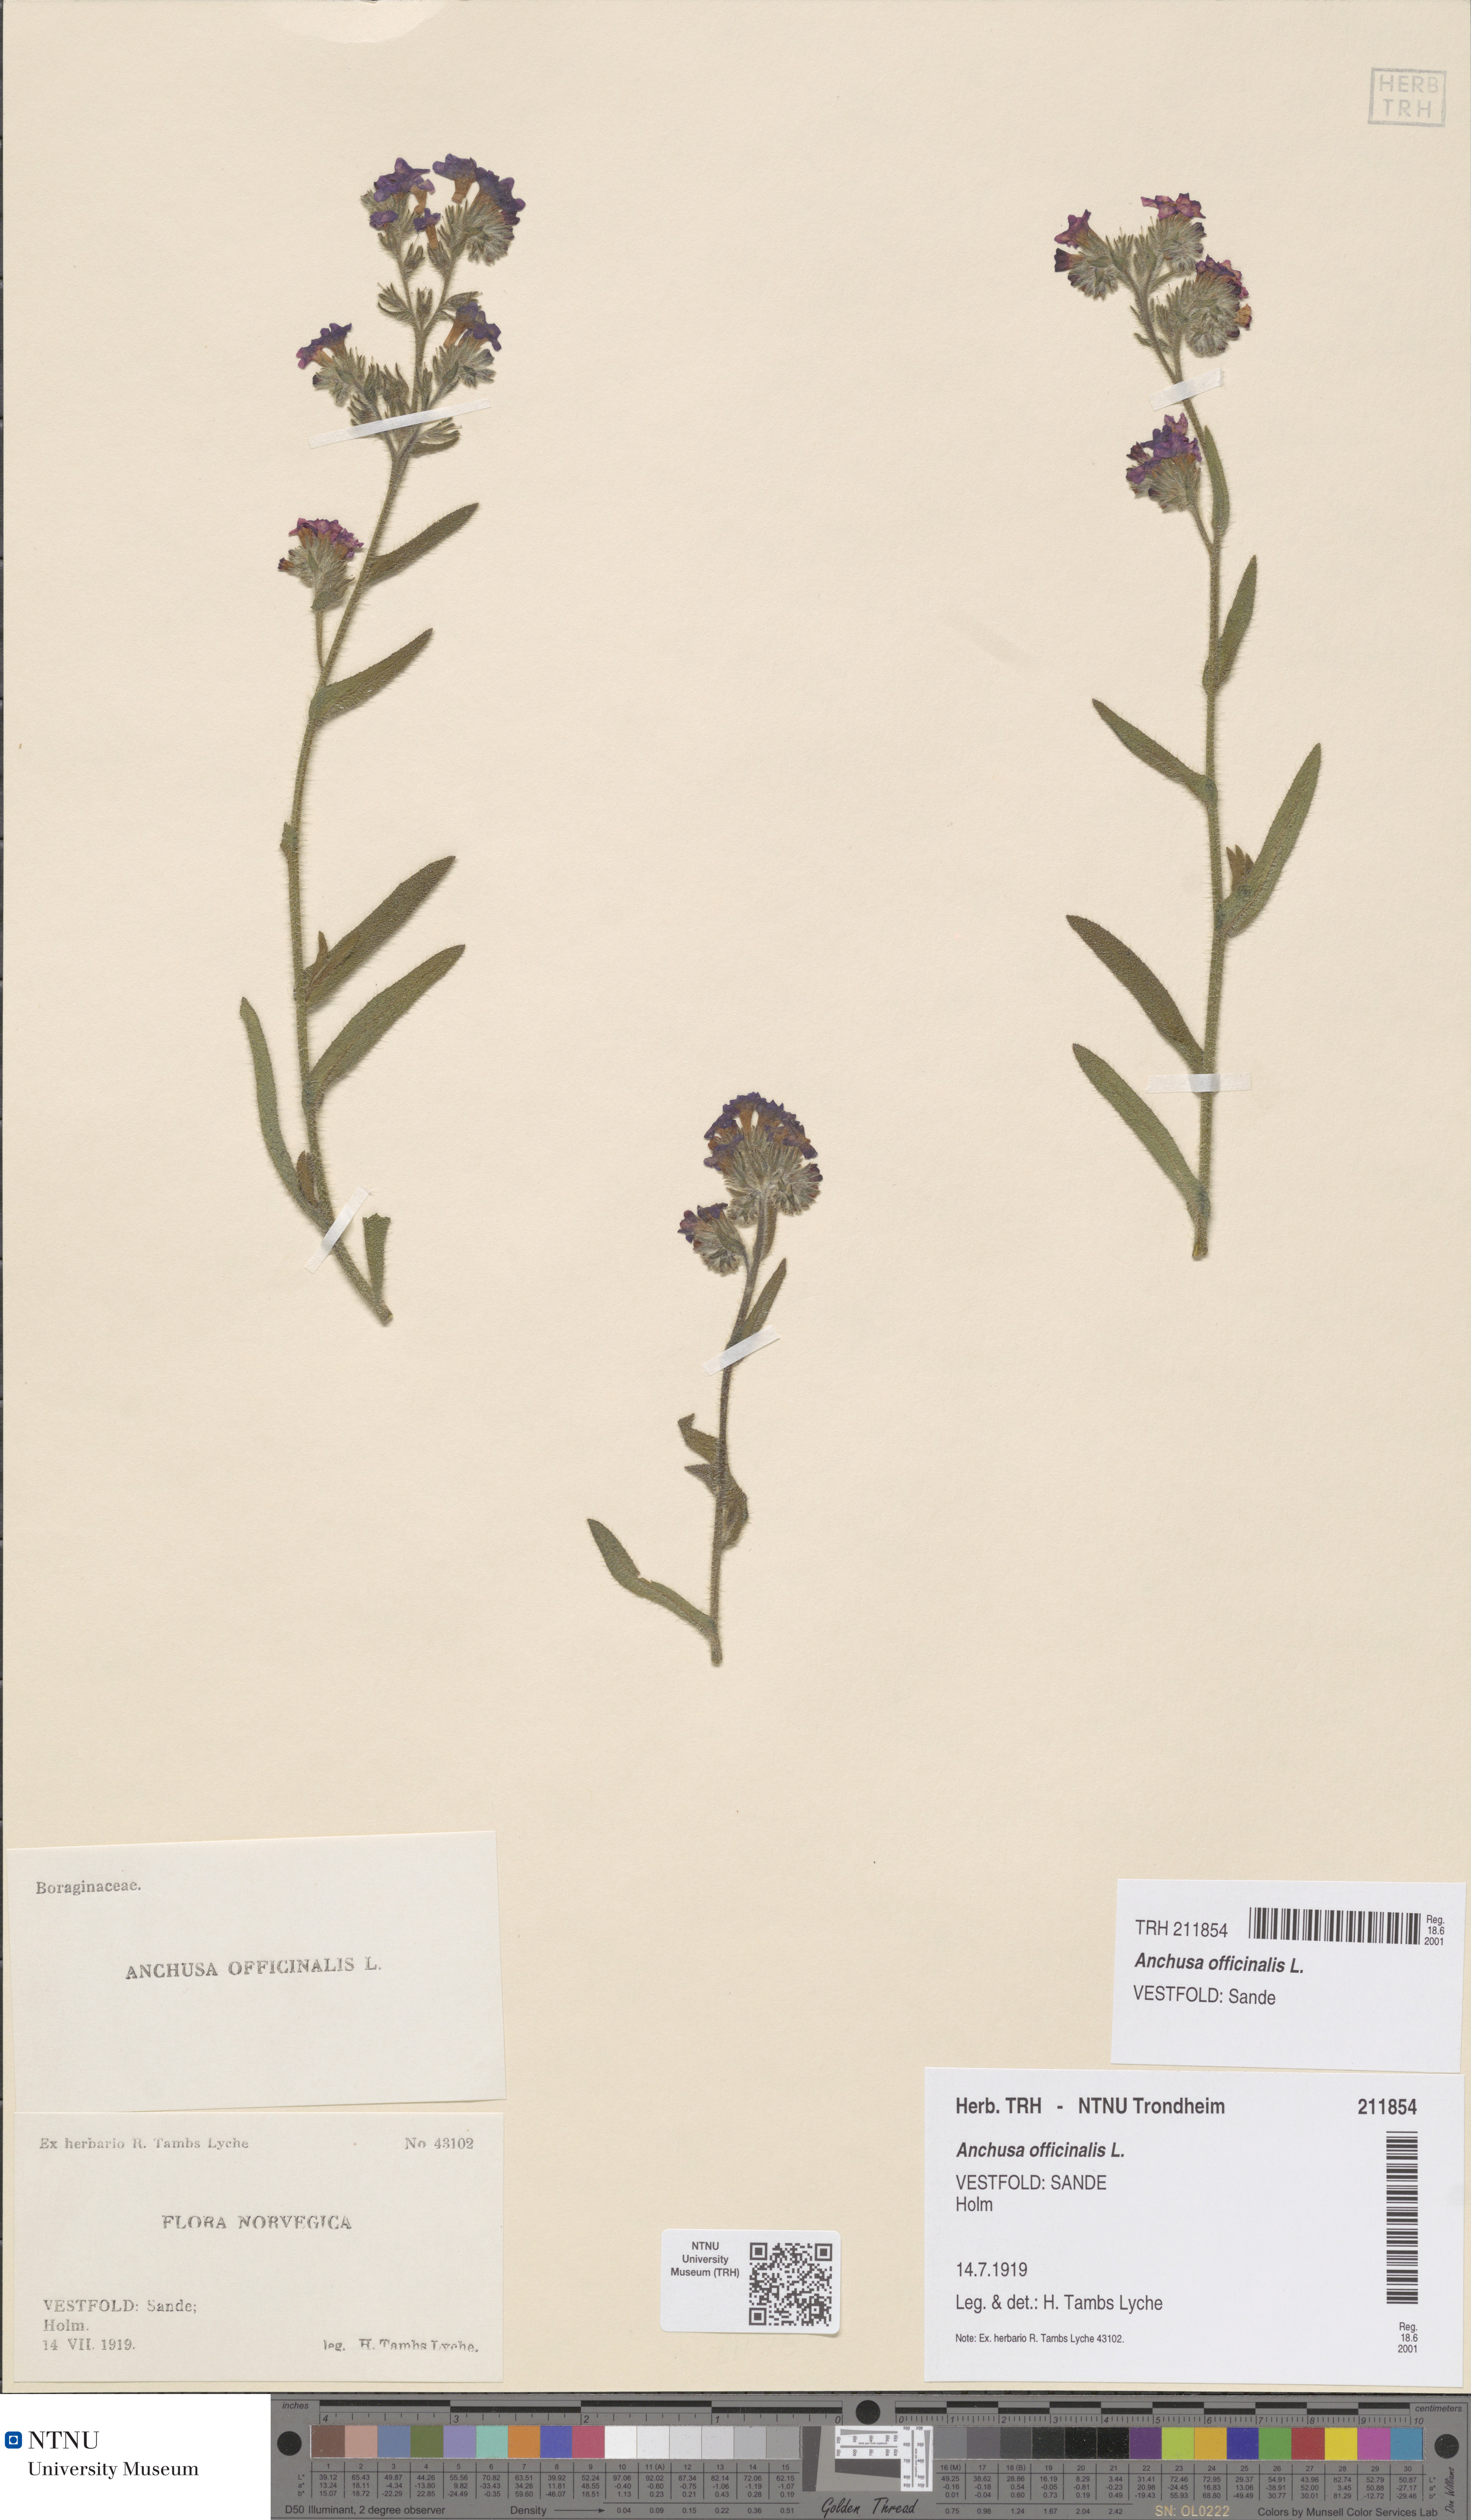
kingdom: Plantae
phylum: Tracheophyta
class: Magnoliopsida
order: Boraginales
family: Boraginaceae
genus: Anchusa
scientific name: Anchusa officinalis
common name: Alkanet
